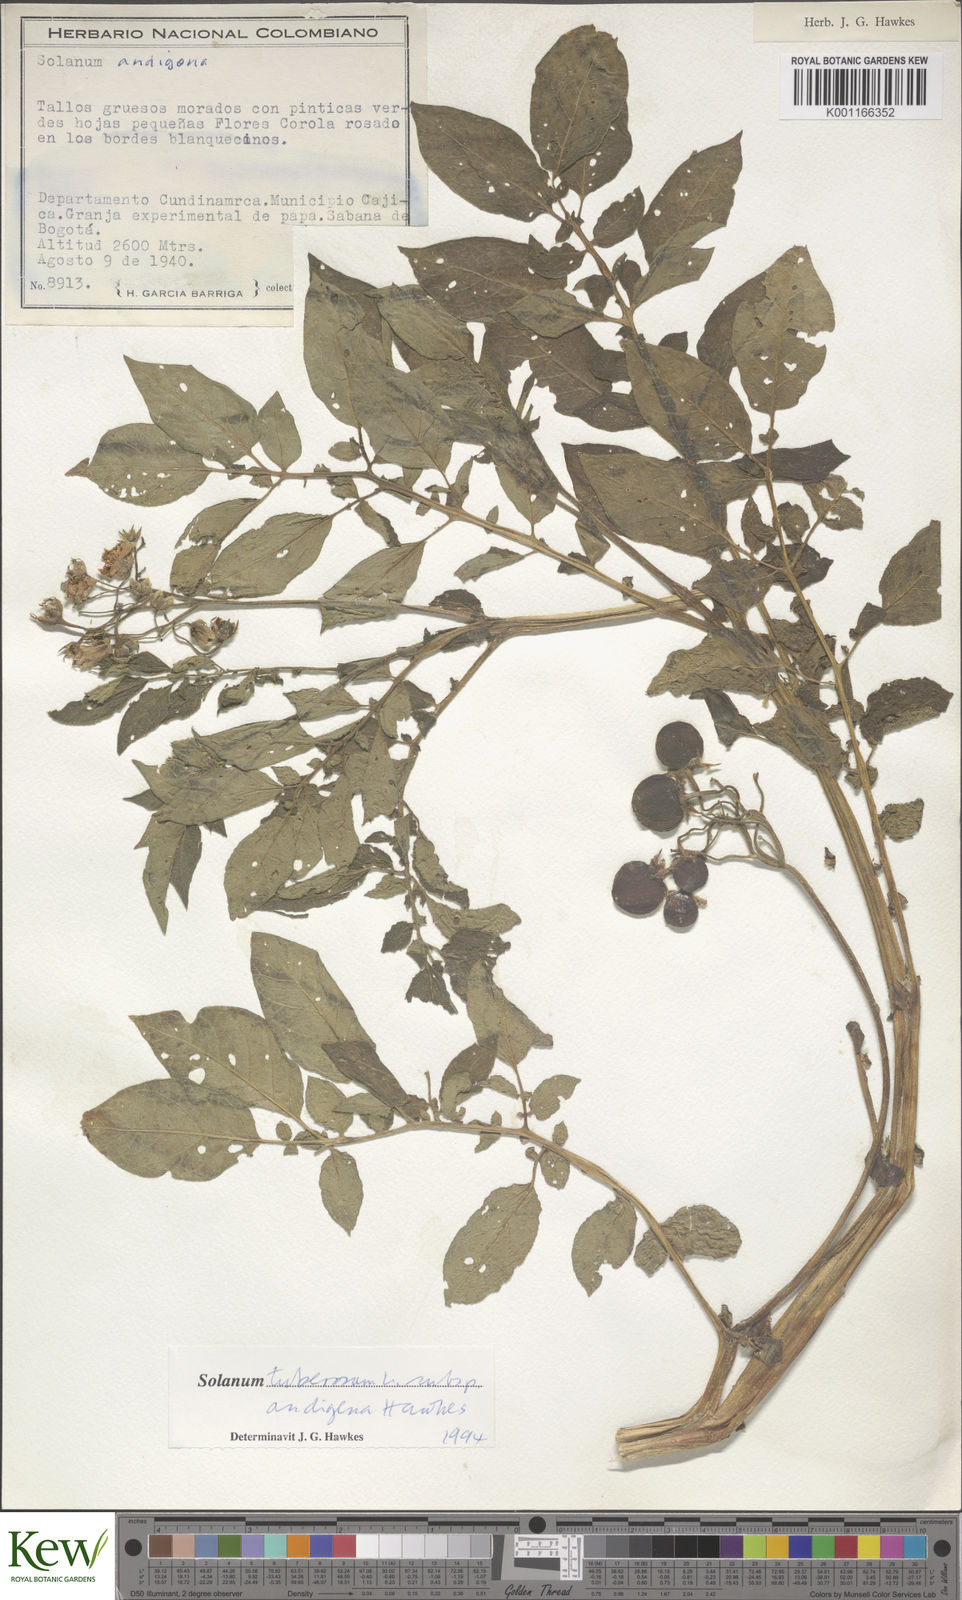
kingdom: Plantae
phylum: Tracheophyta
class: Magnoliopsida
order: Solanales
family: Solanaceae
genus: Solanum
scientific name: Solanum tuberosum
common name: Potato
